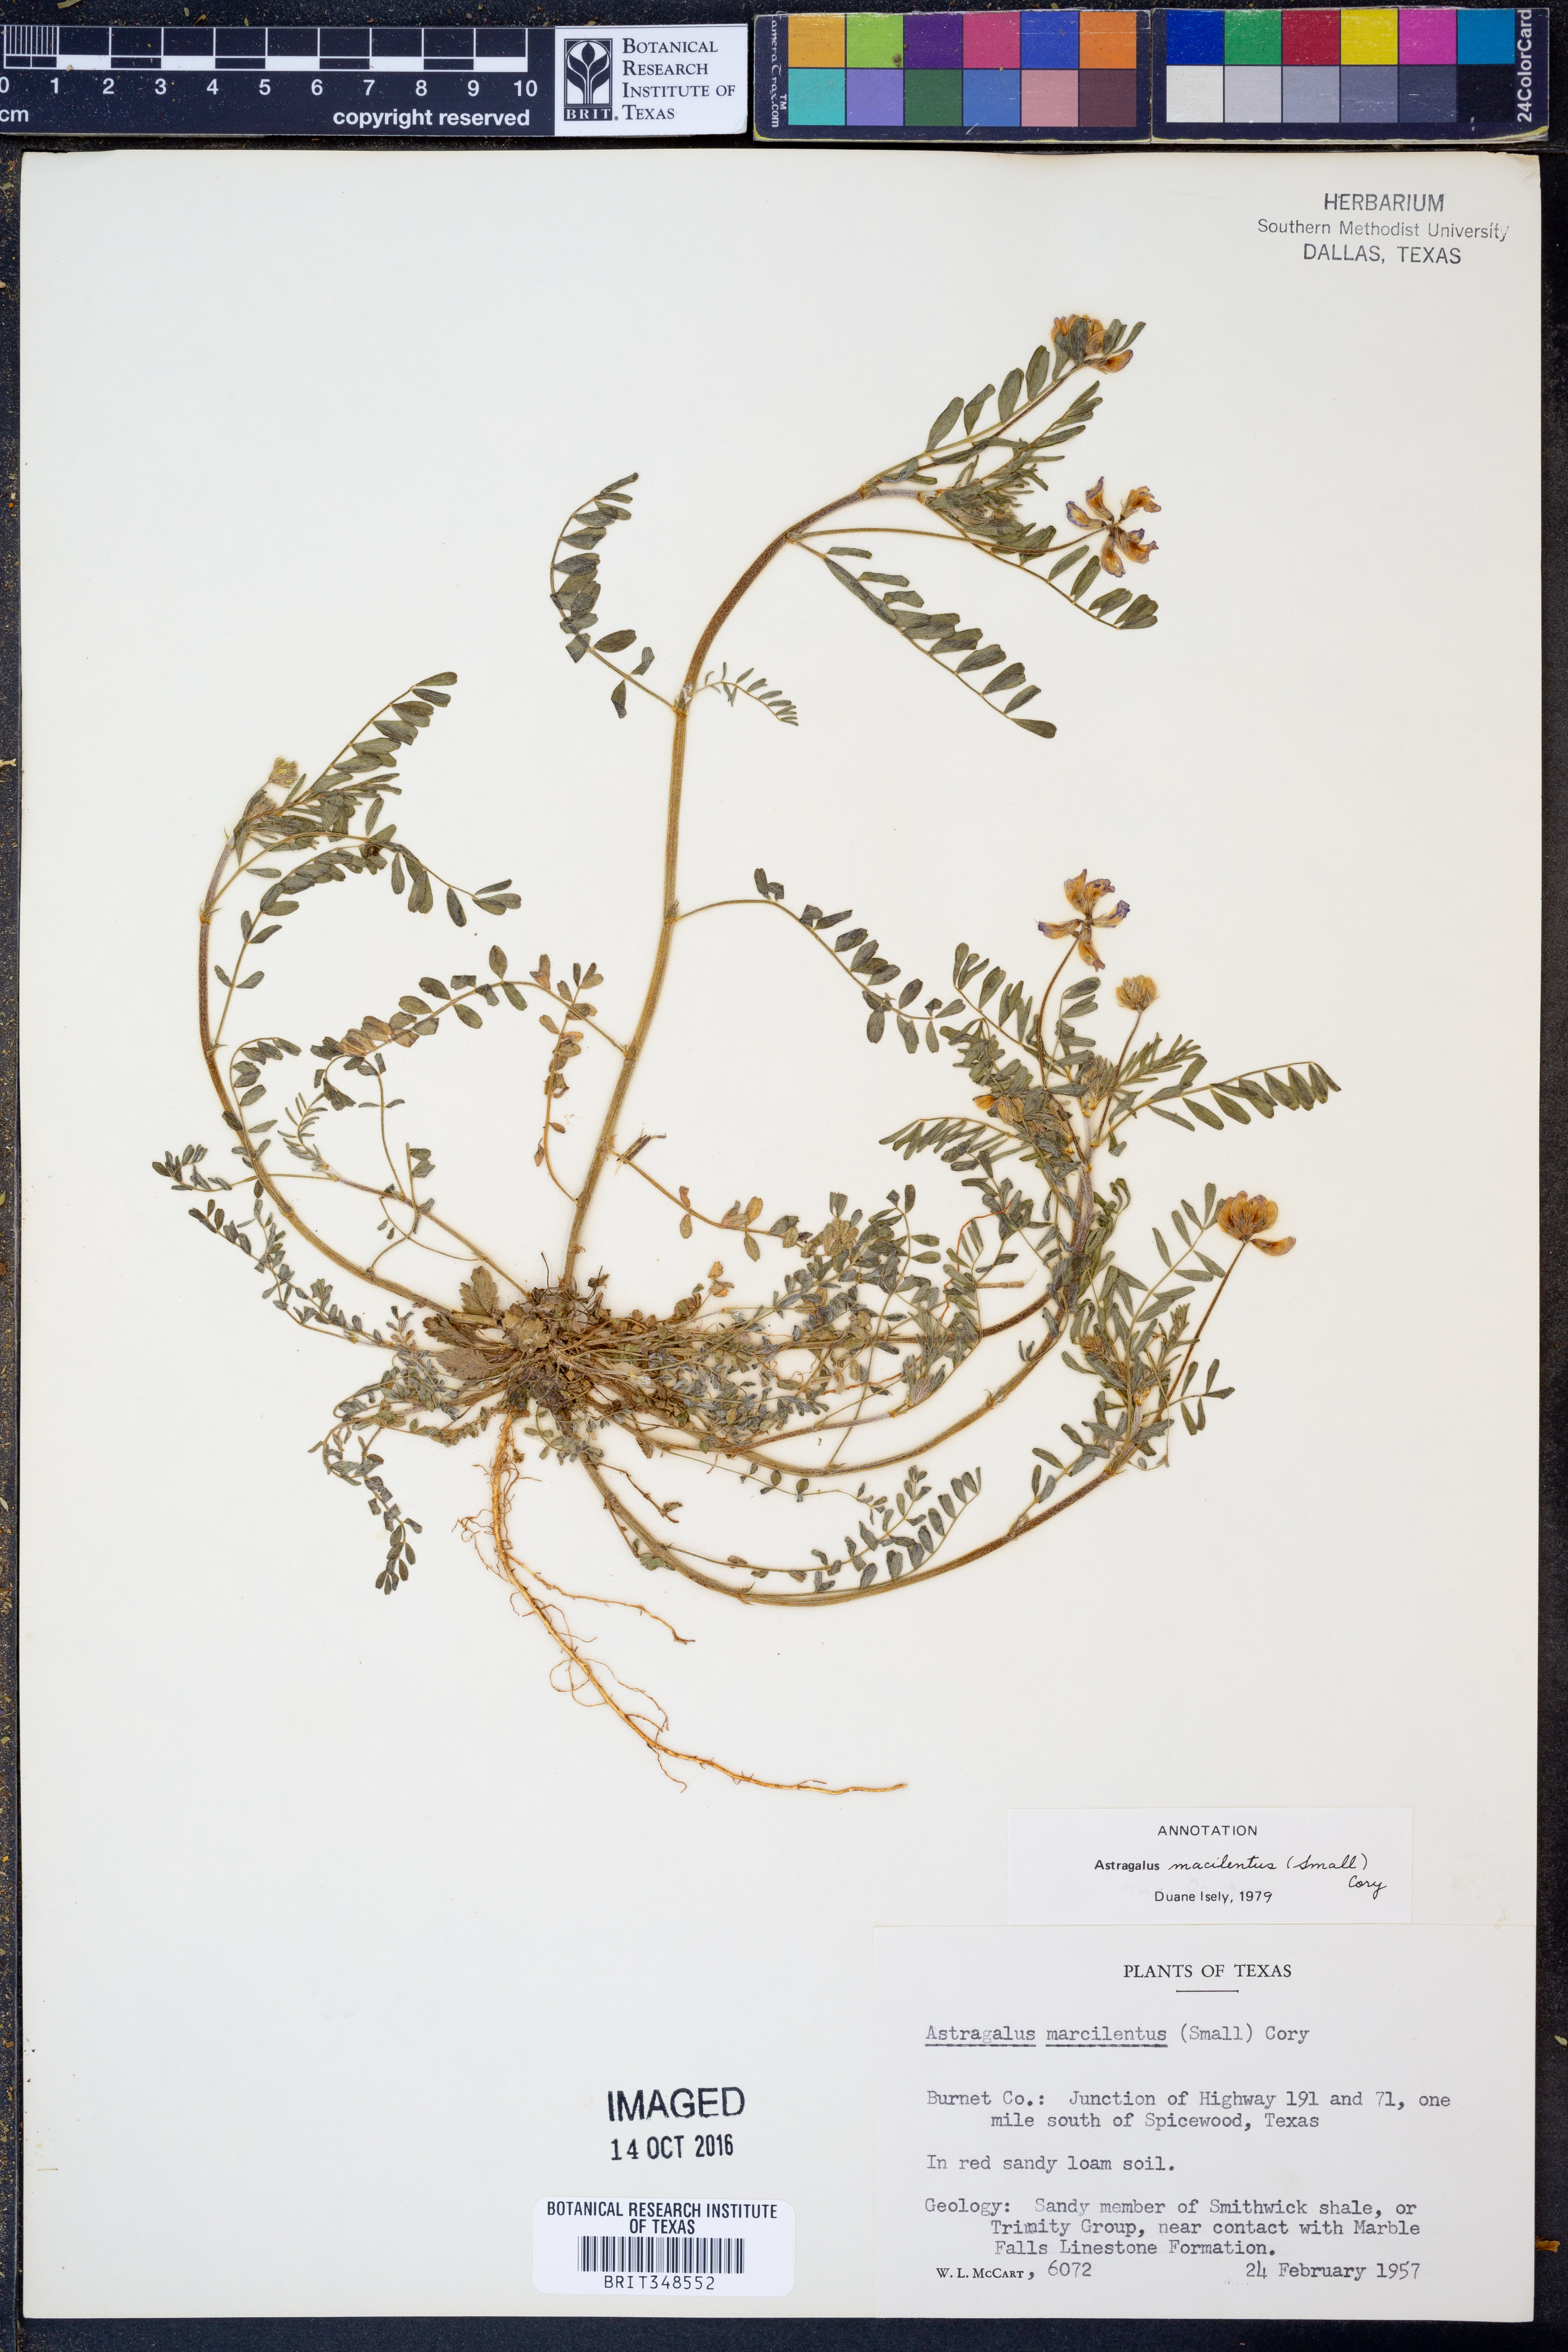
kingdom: Plantae
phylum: Tracheophyta
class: Magnoliopsida
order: Fabales
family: Fabaceae
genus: Astragalus
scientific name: Astragalus nuttallianus
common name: Smallflowered milkvetch
